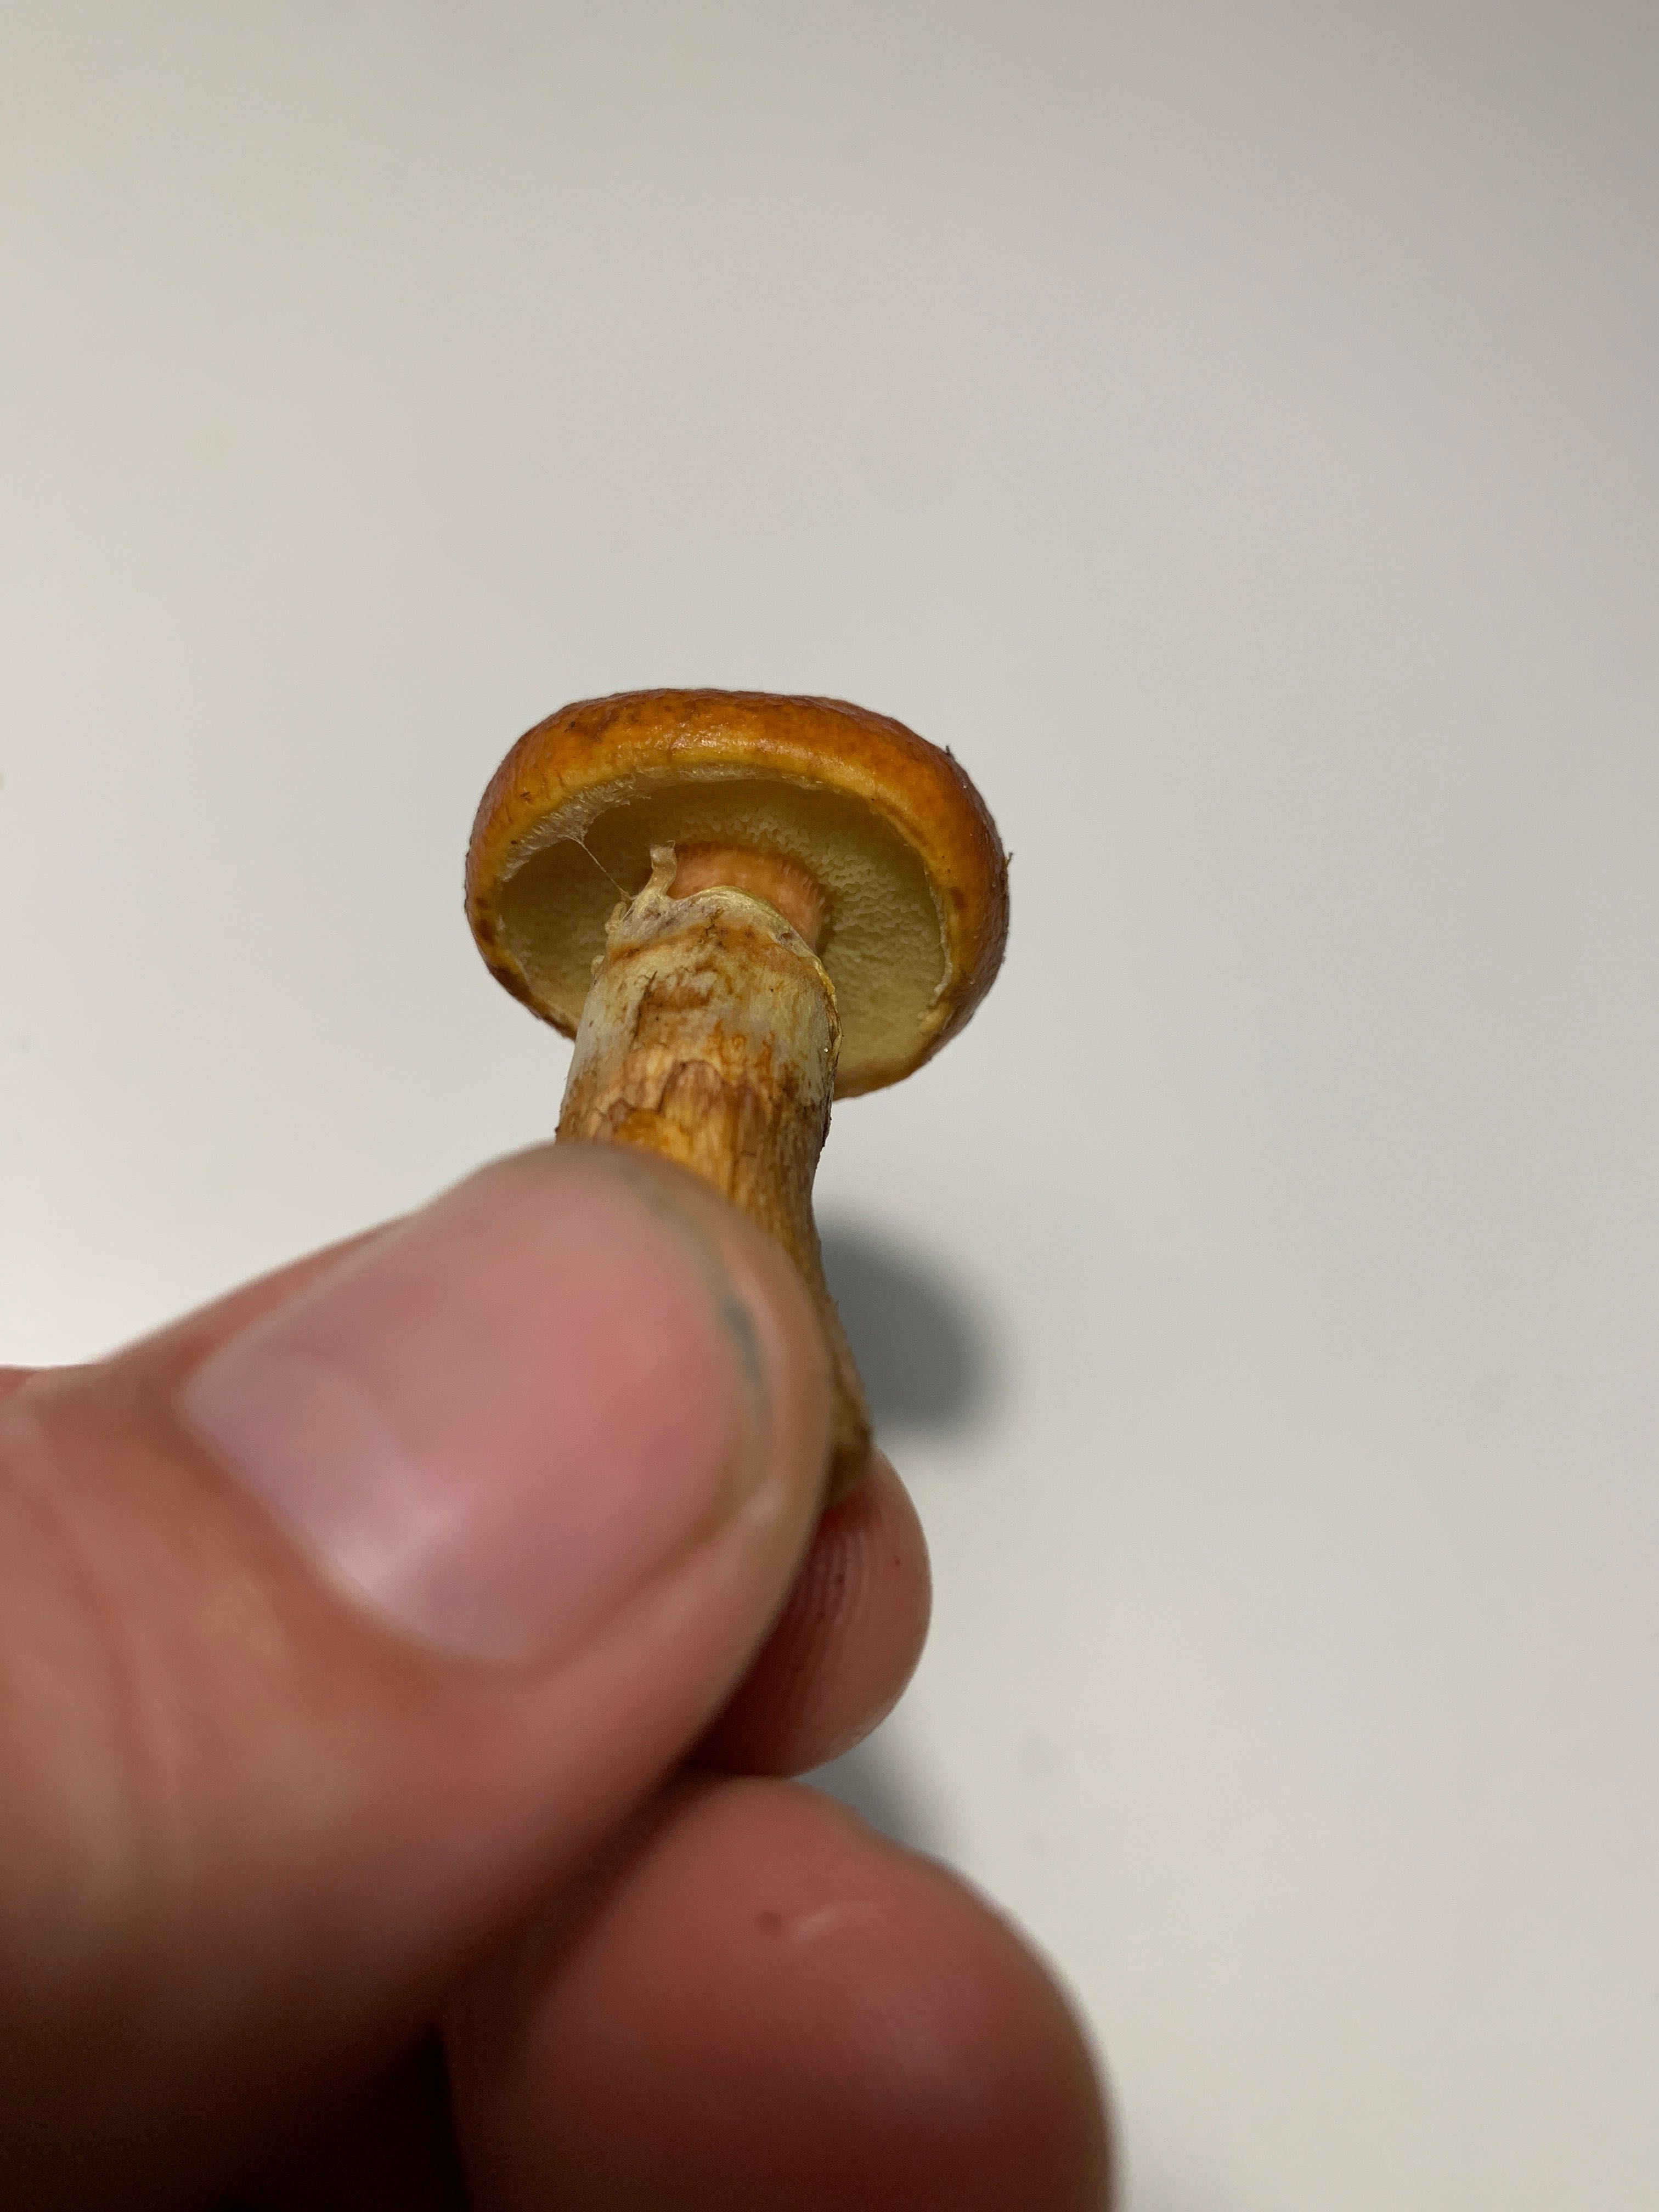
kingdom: Fungi
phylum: Basidiomycota
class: Agaricomycetes
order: Boletales
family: Suillaceae
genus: Suillus
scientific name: Suillus grevillei
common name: lærke-slimrørhat
